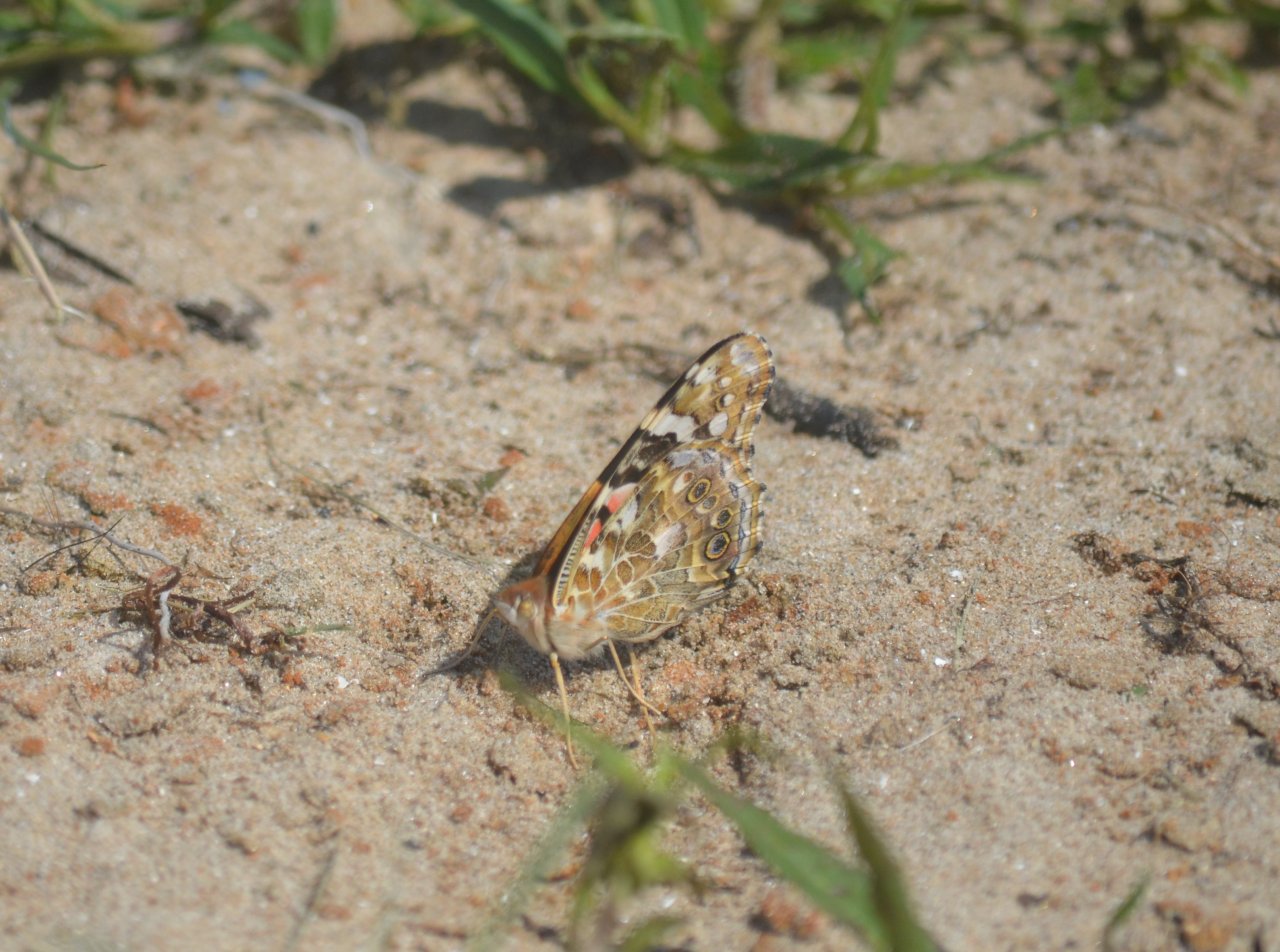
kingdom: Animalia
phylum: Arthropoda
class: Insecta
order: Lepidoptera
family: Nymphalidae
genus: Vanessa
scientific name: Vanessa cardui
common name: Painted Lady
